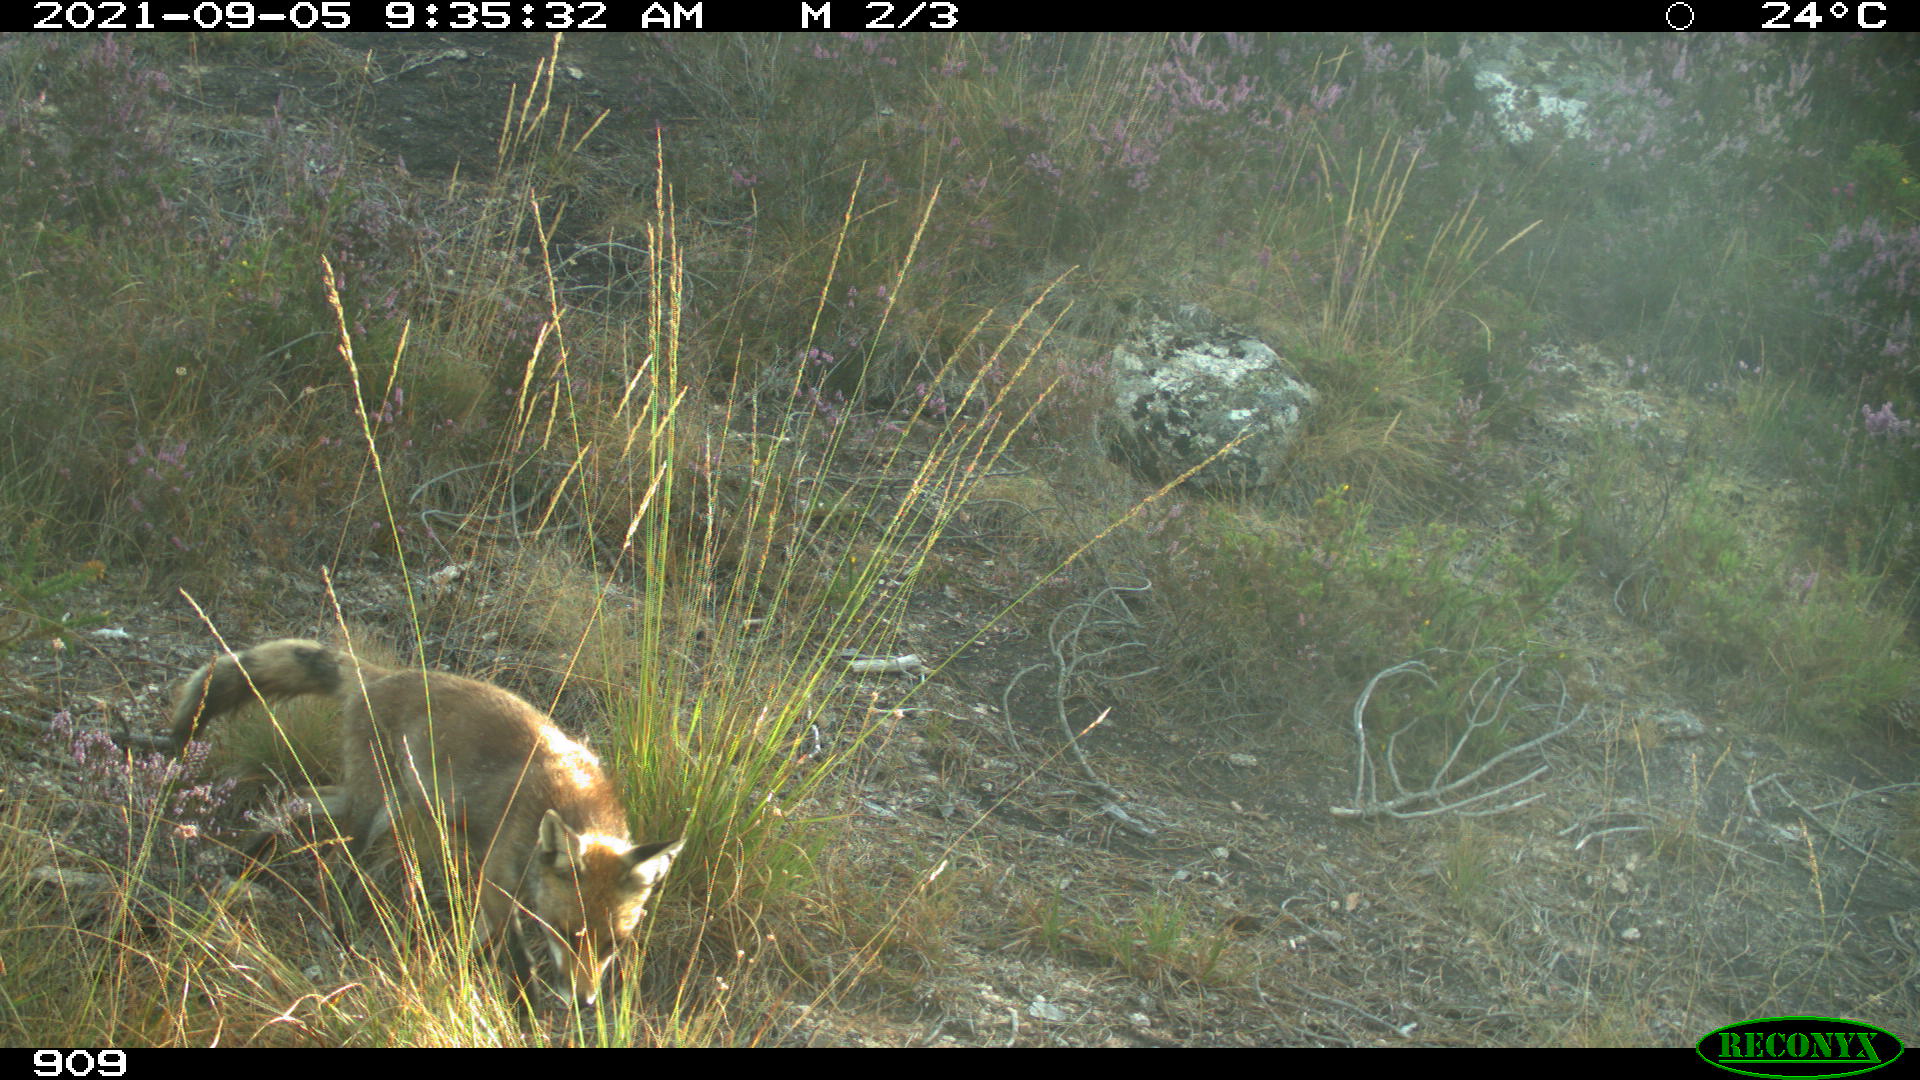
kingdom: Animalia
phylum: Chordata
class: Mammalia
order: Carnivora
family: Canidae
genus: Vulpes
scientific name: Vulpes vulpes
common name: Red fox
